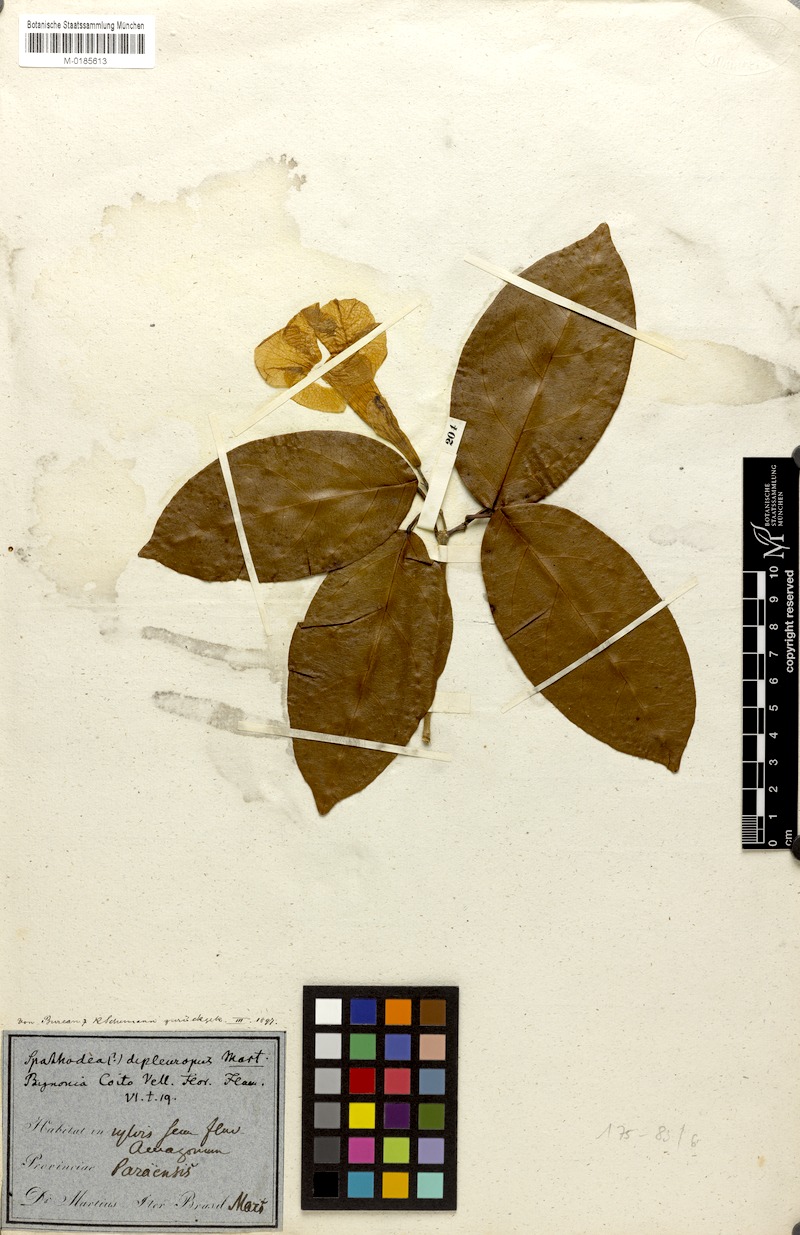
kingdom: Plantae
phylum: Tracheophyta
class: Magnoliopsida
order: Lamiales
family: Bignoniaceae
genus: Bignonia
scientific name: Bignonia corymbosa
